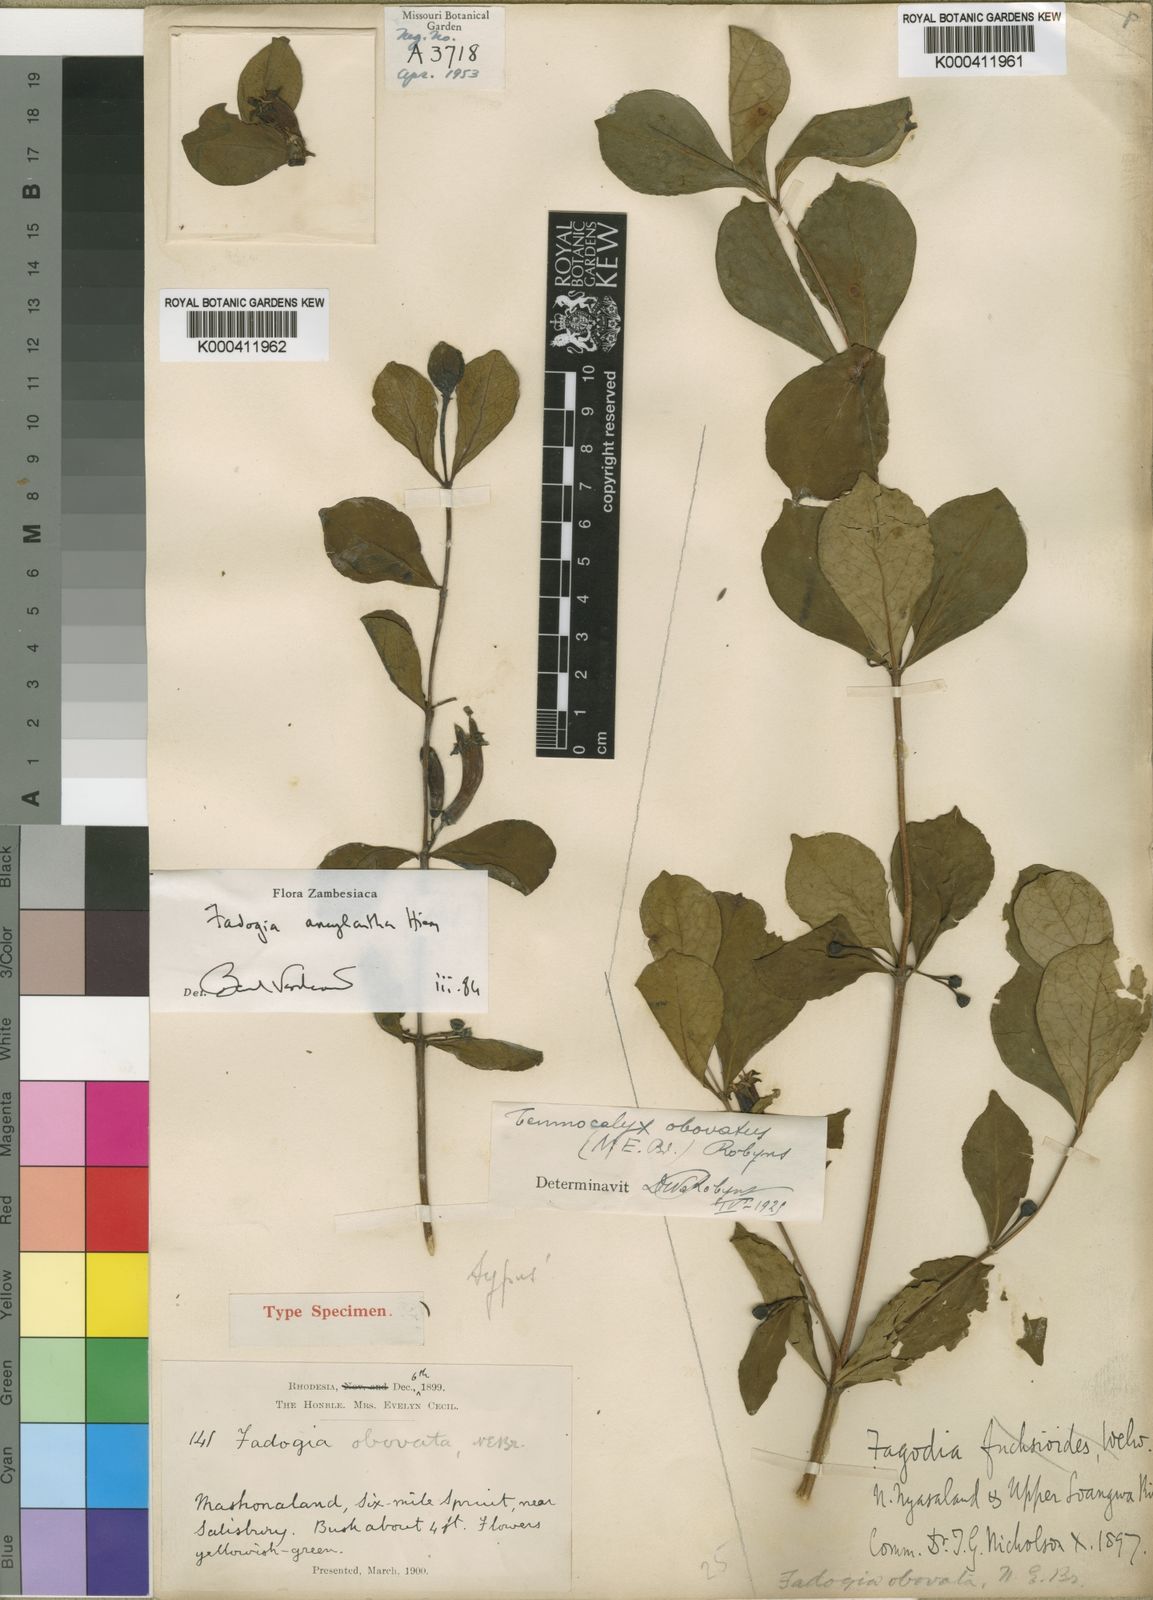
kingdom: Plantae
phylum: Tracheophyta
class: Magnoliopsida
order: Gentianales
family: Rubiaceae
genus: Fadogia
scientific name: Fadogia ancylantha
